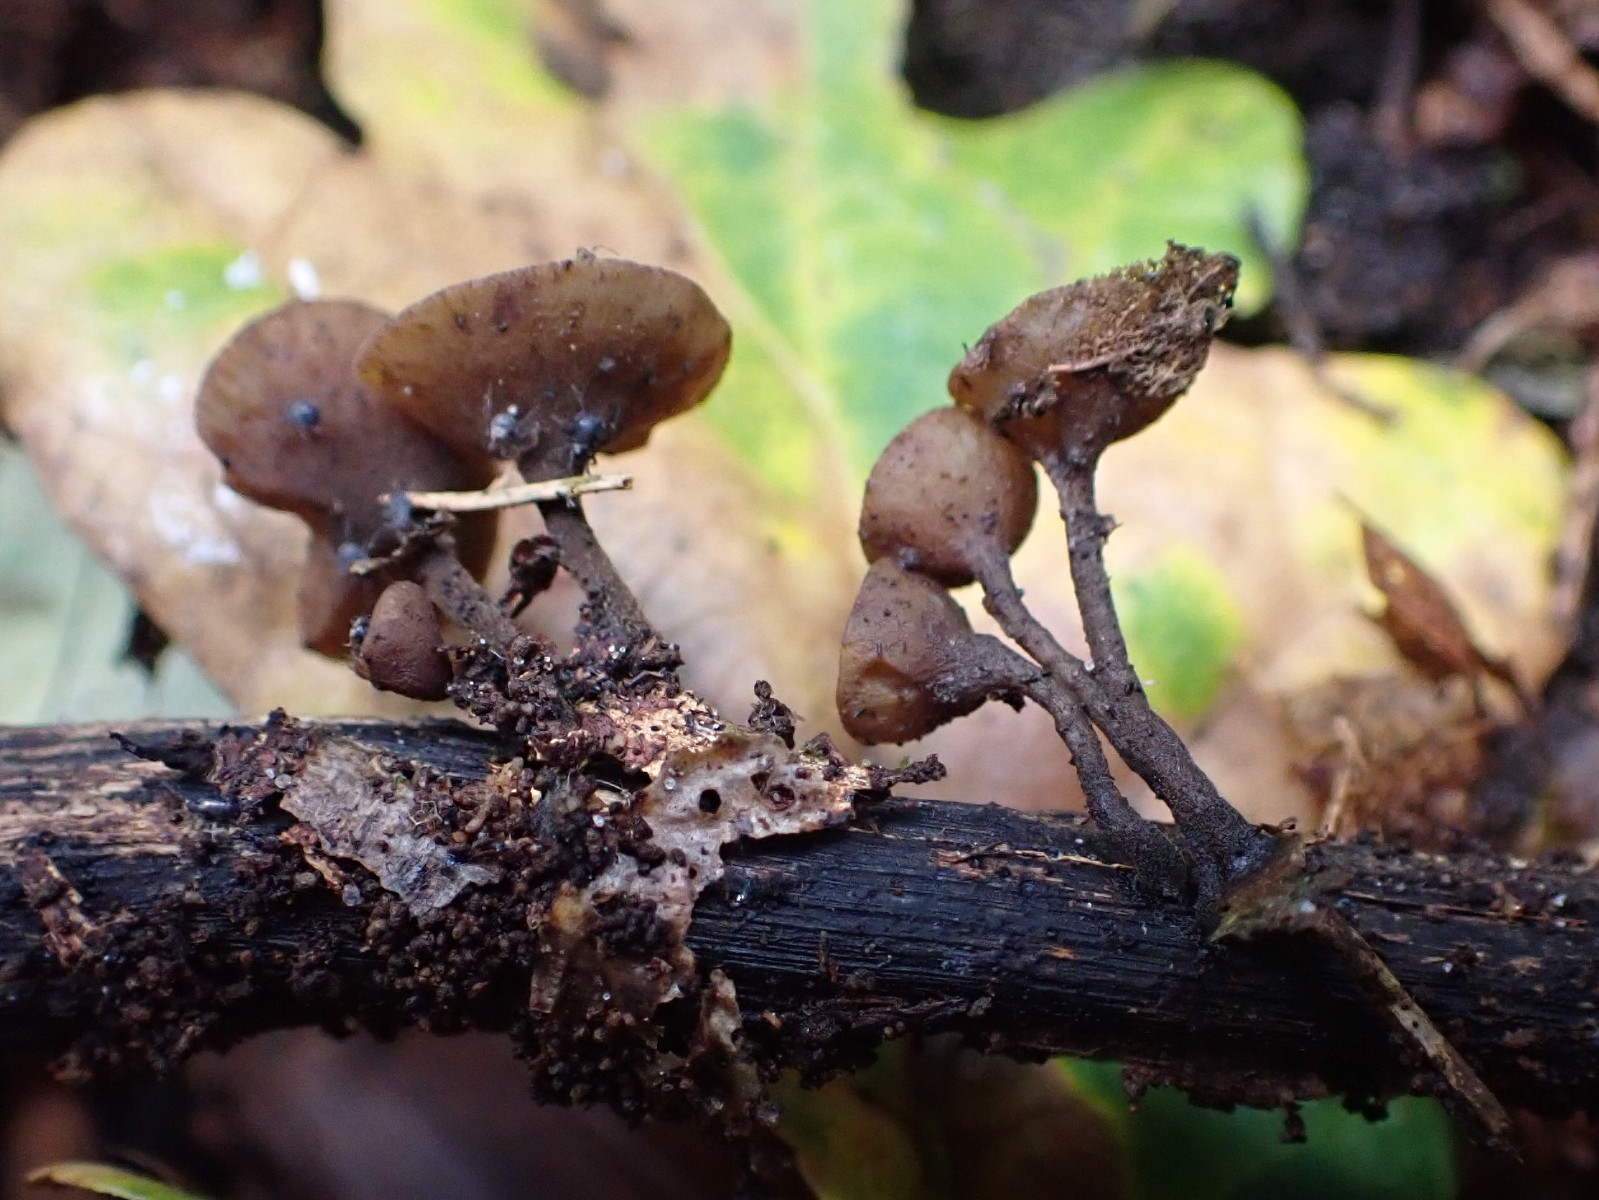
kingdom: Fungi
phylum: Ascomycota
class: Leotiomycetes
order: Helotiales
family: Rutstroemiaceae
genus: Rutstroemia
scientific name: Rutstroemia firma
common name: gren-brunskive
